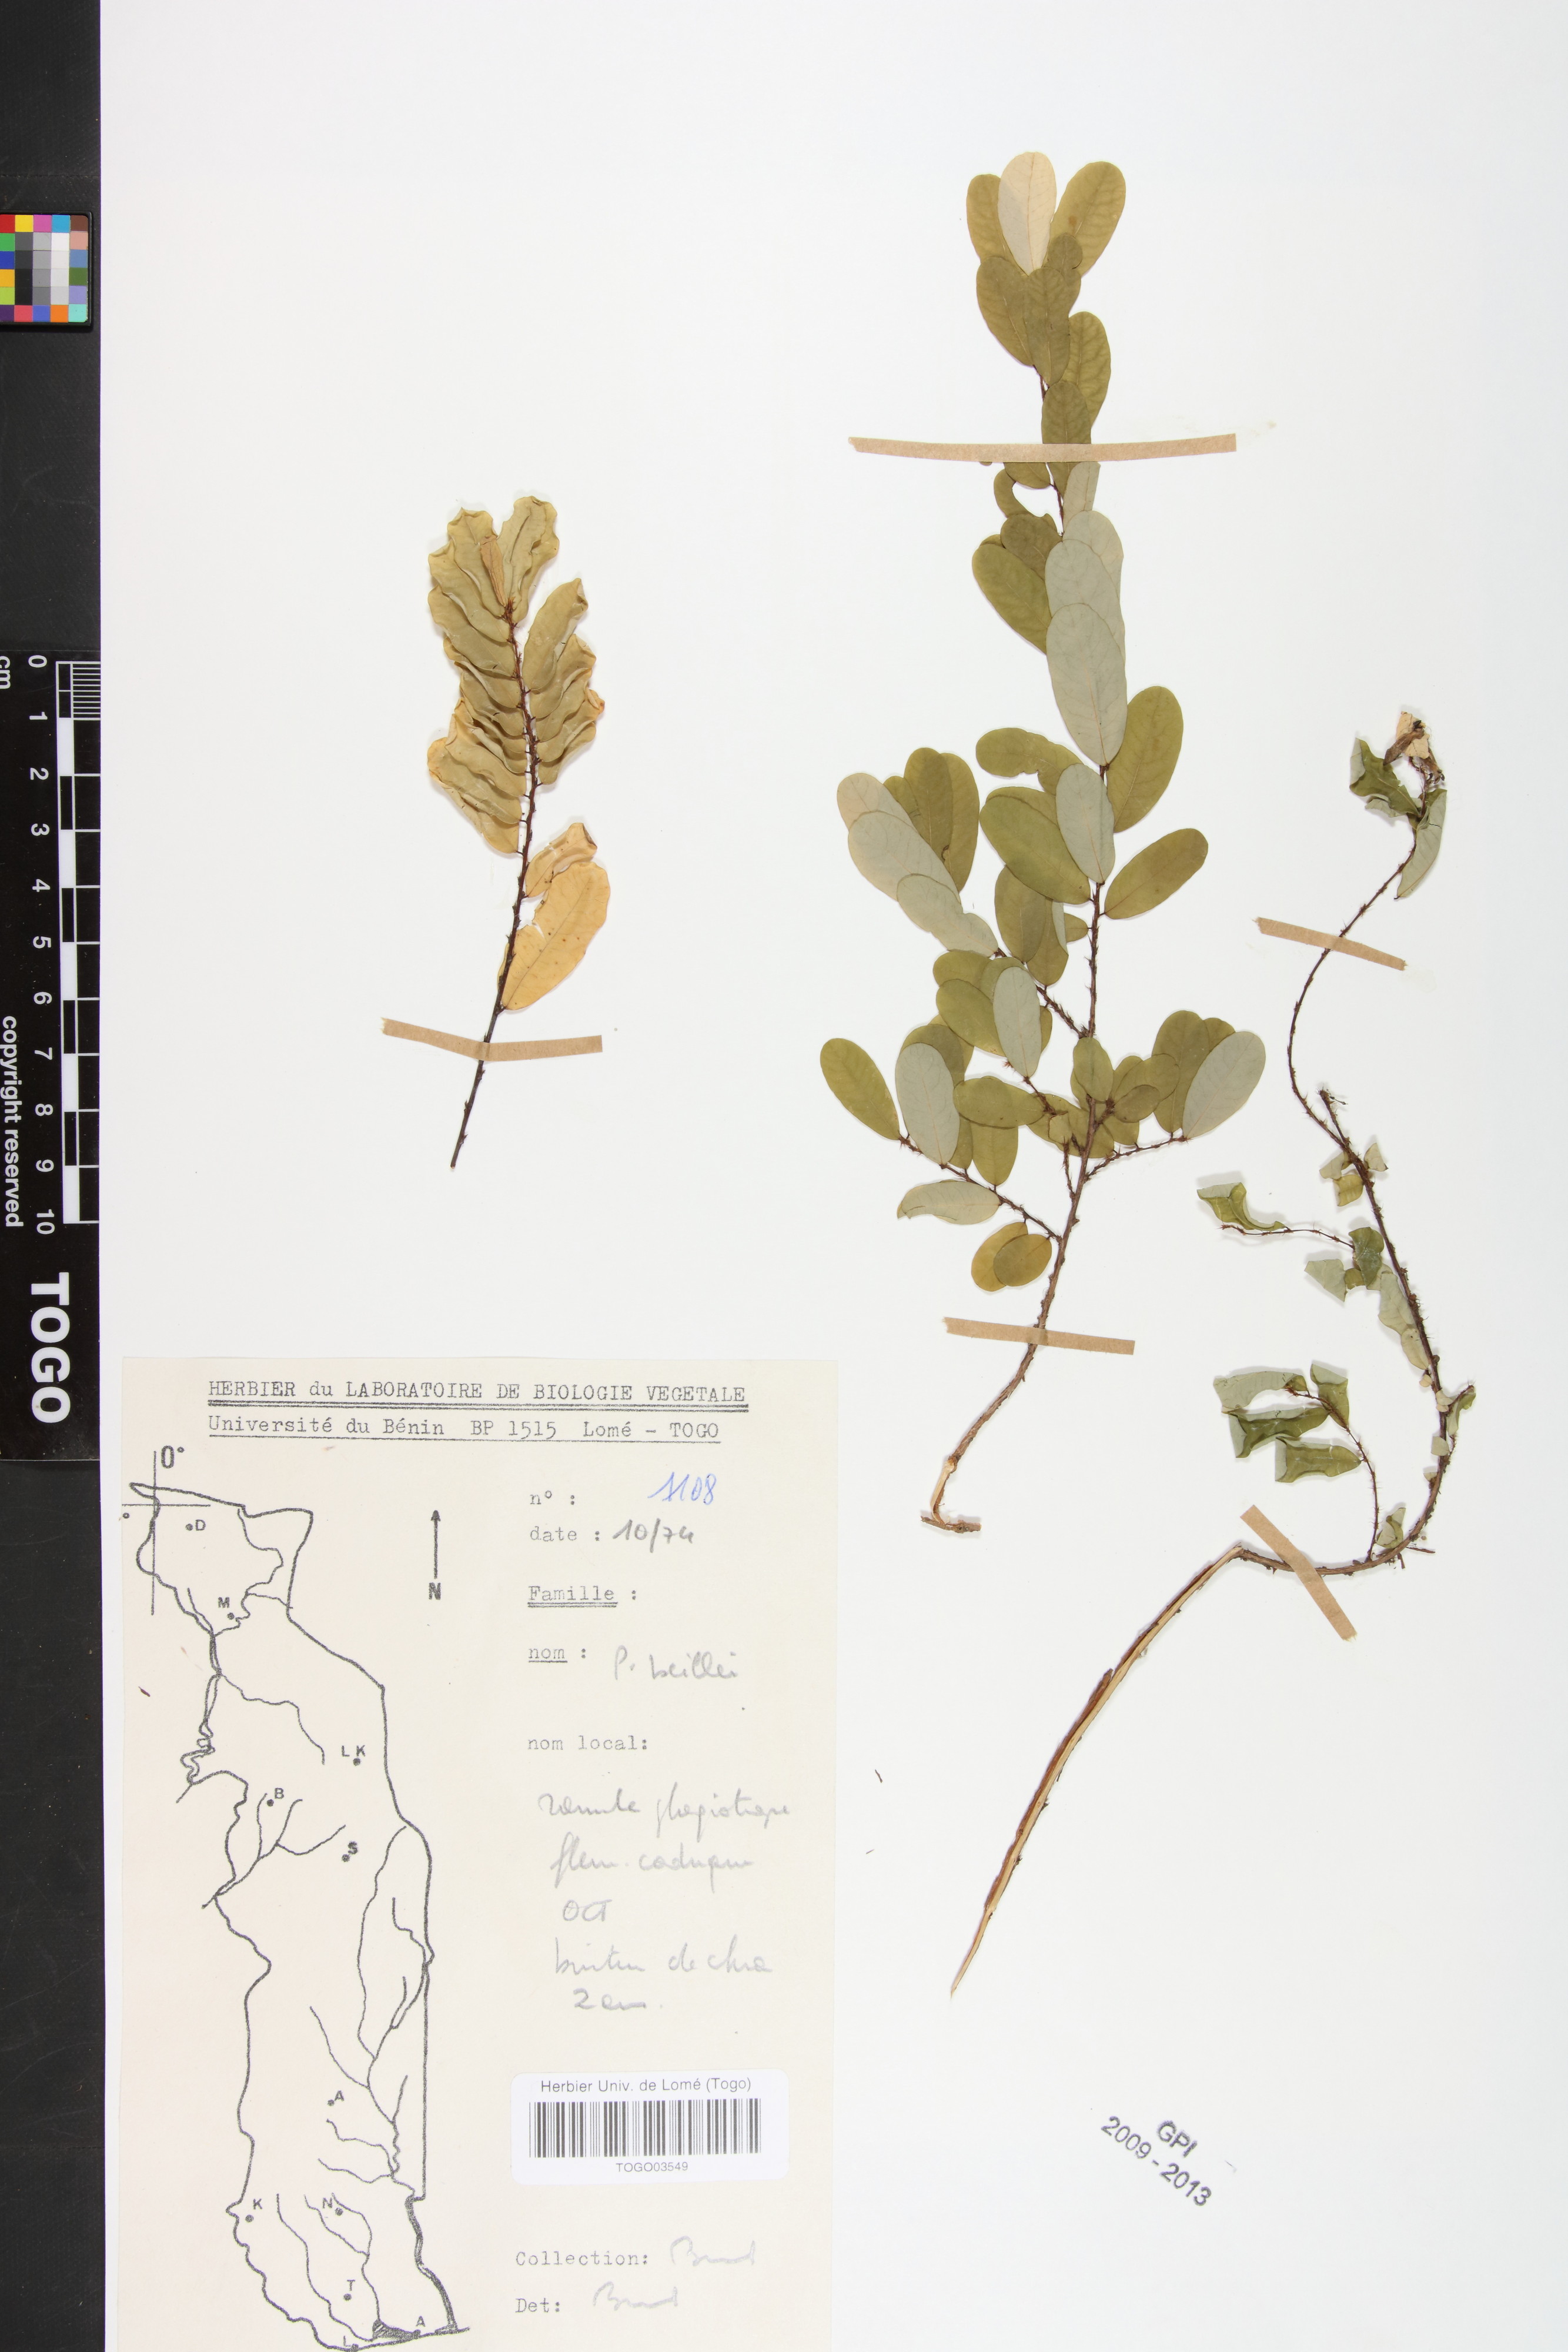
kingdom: Plantae
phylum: Tracheophyta
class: Magnoliopsida
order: Malpighiales
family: Phyllanthaceae
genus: Phyllanthus
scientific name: Phyllanthus welwitschianus
